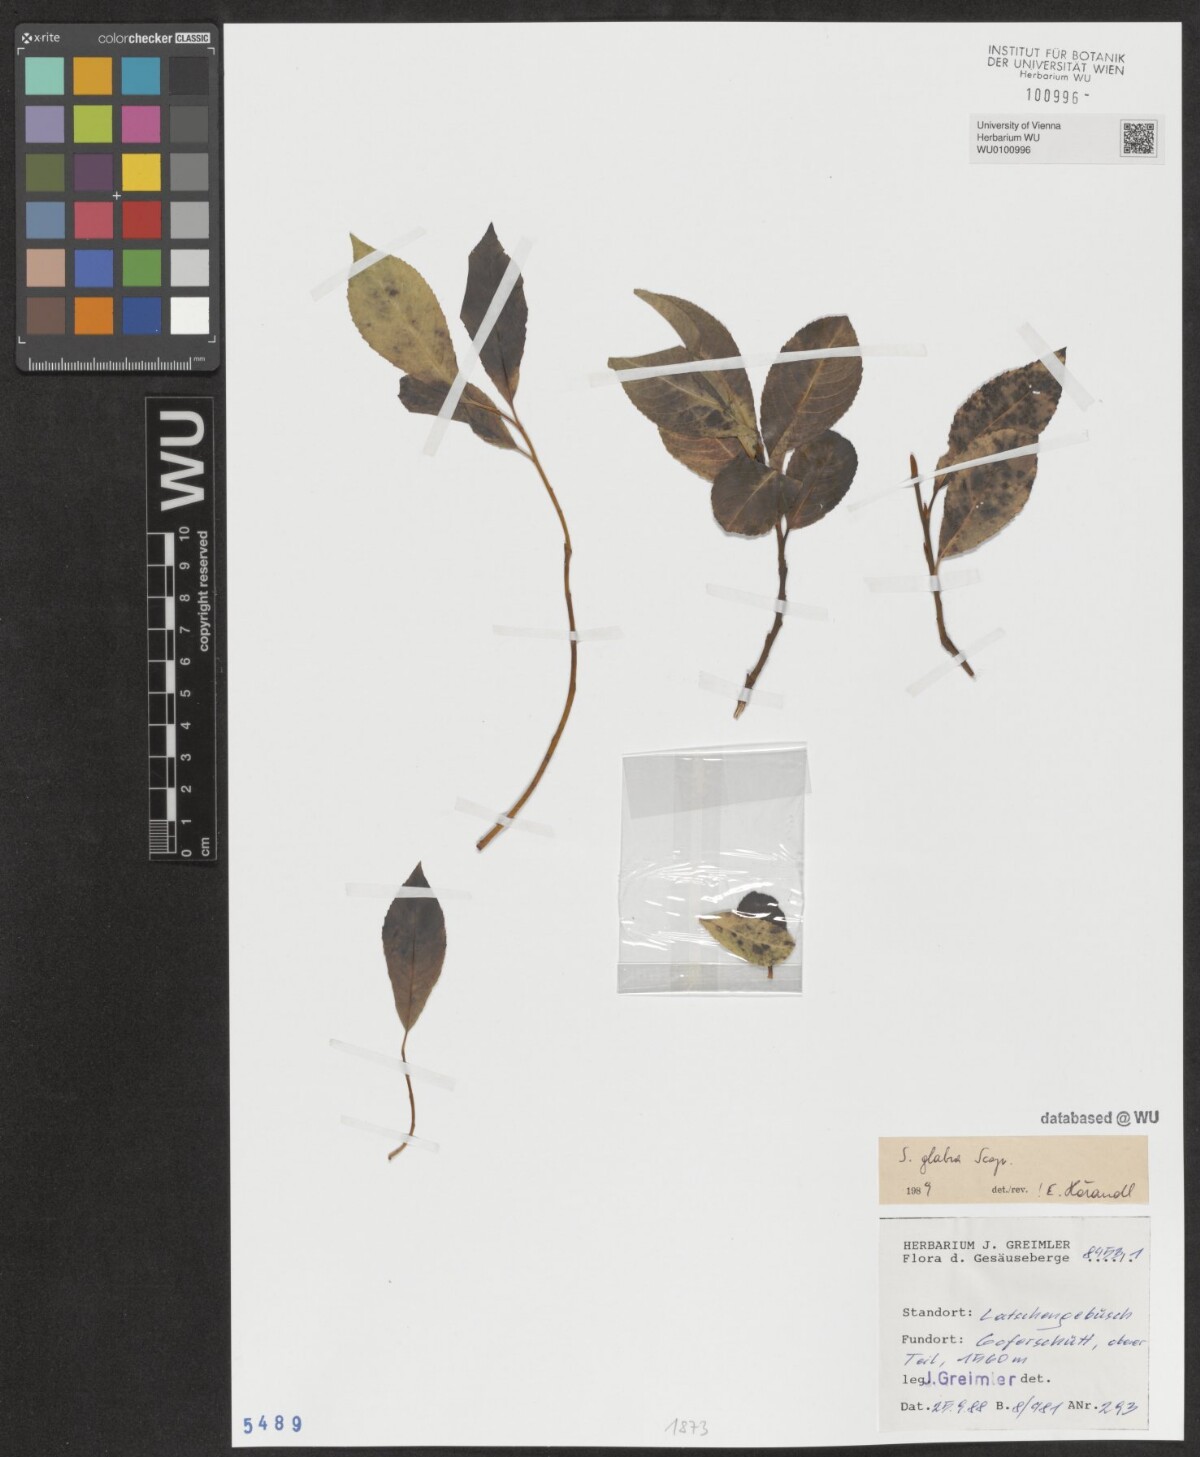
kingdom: Plantae
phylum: Tracheophyta
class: Magnoliopsida
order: Malpighiales
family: Salicaceae
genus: Salix
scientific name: Salix glabra
